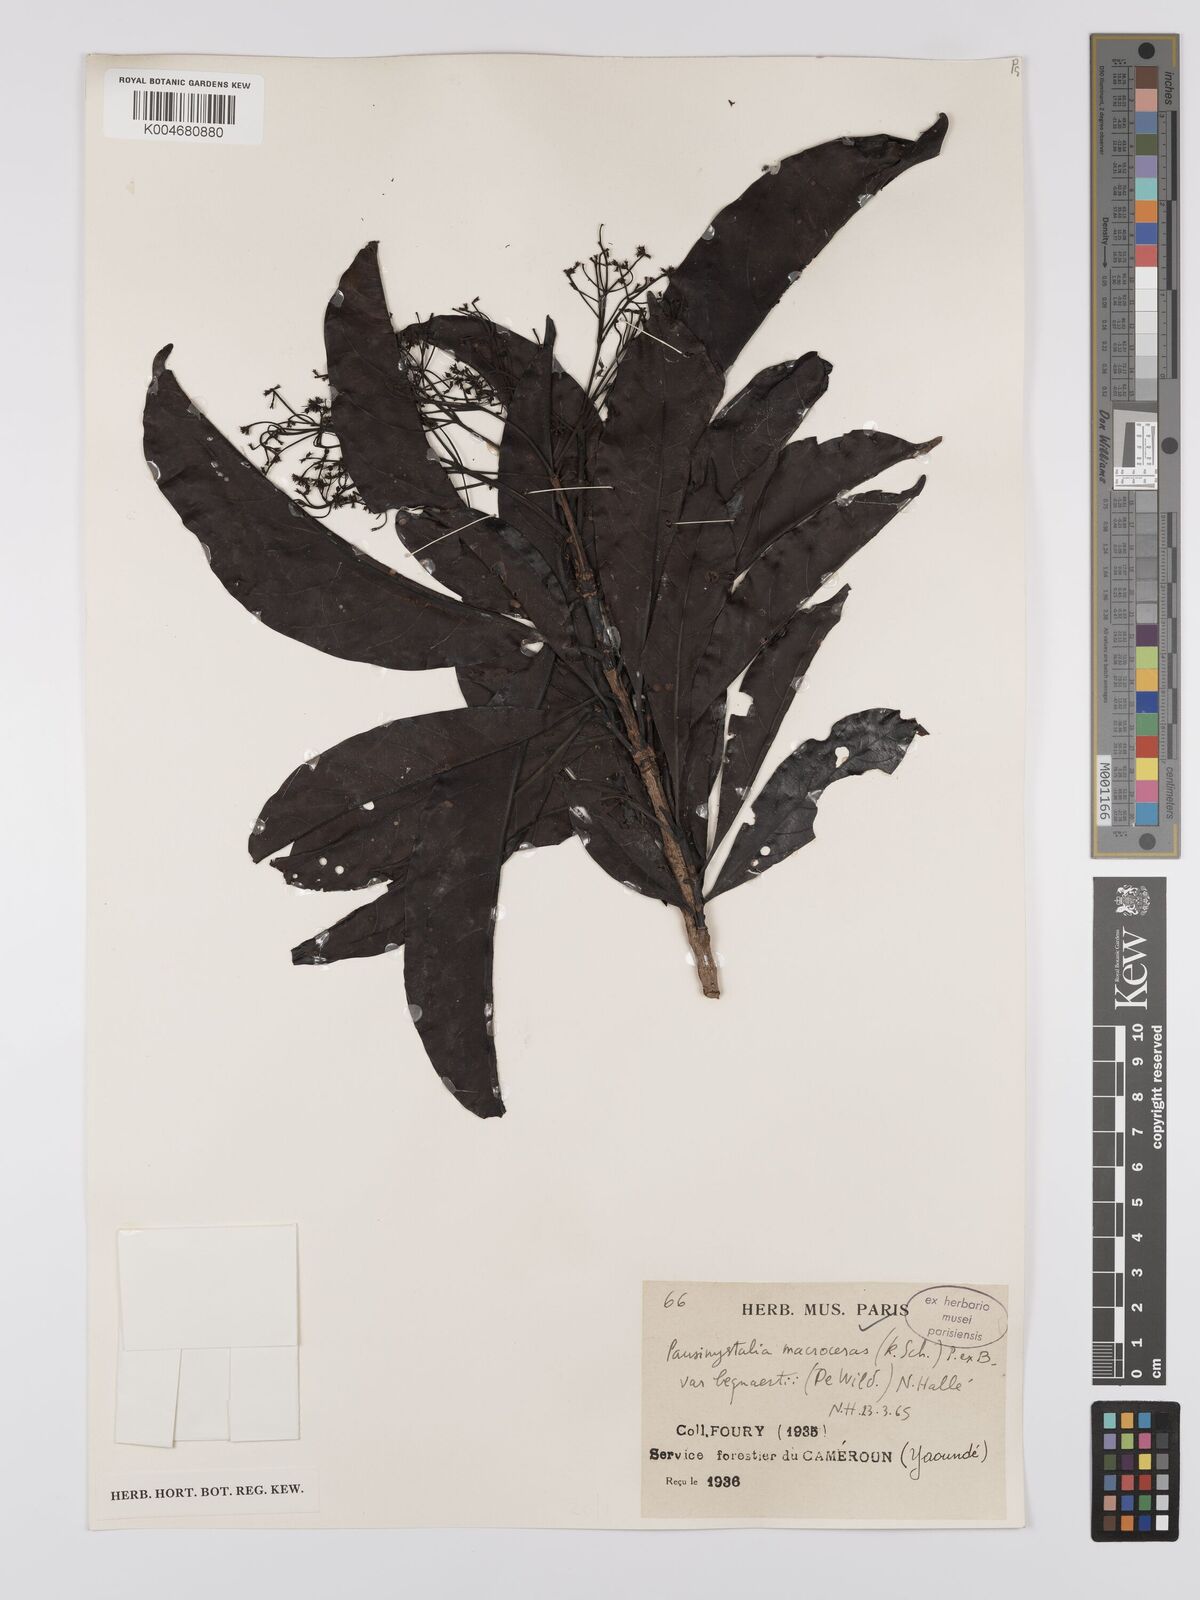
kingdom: Plantae
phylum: Tracheophyta
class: Magnoliopsida
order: Gentianales
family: Rubiaceae
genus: Corynanthe
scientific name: Corynanthe macroceras
